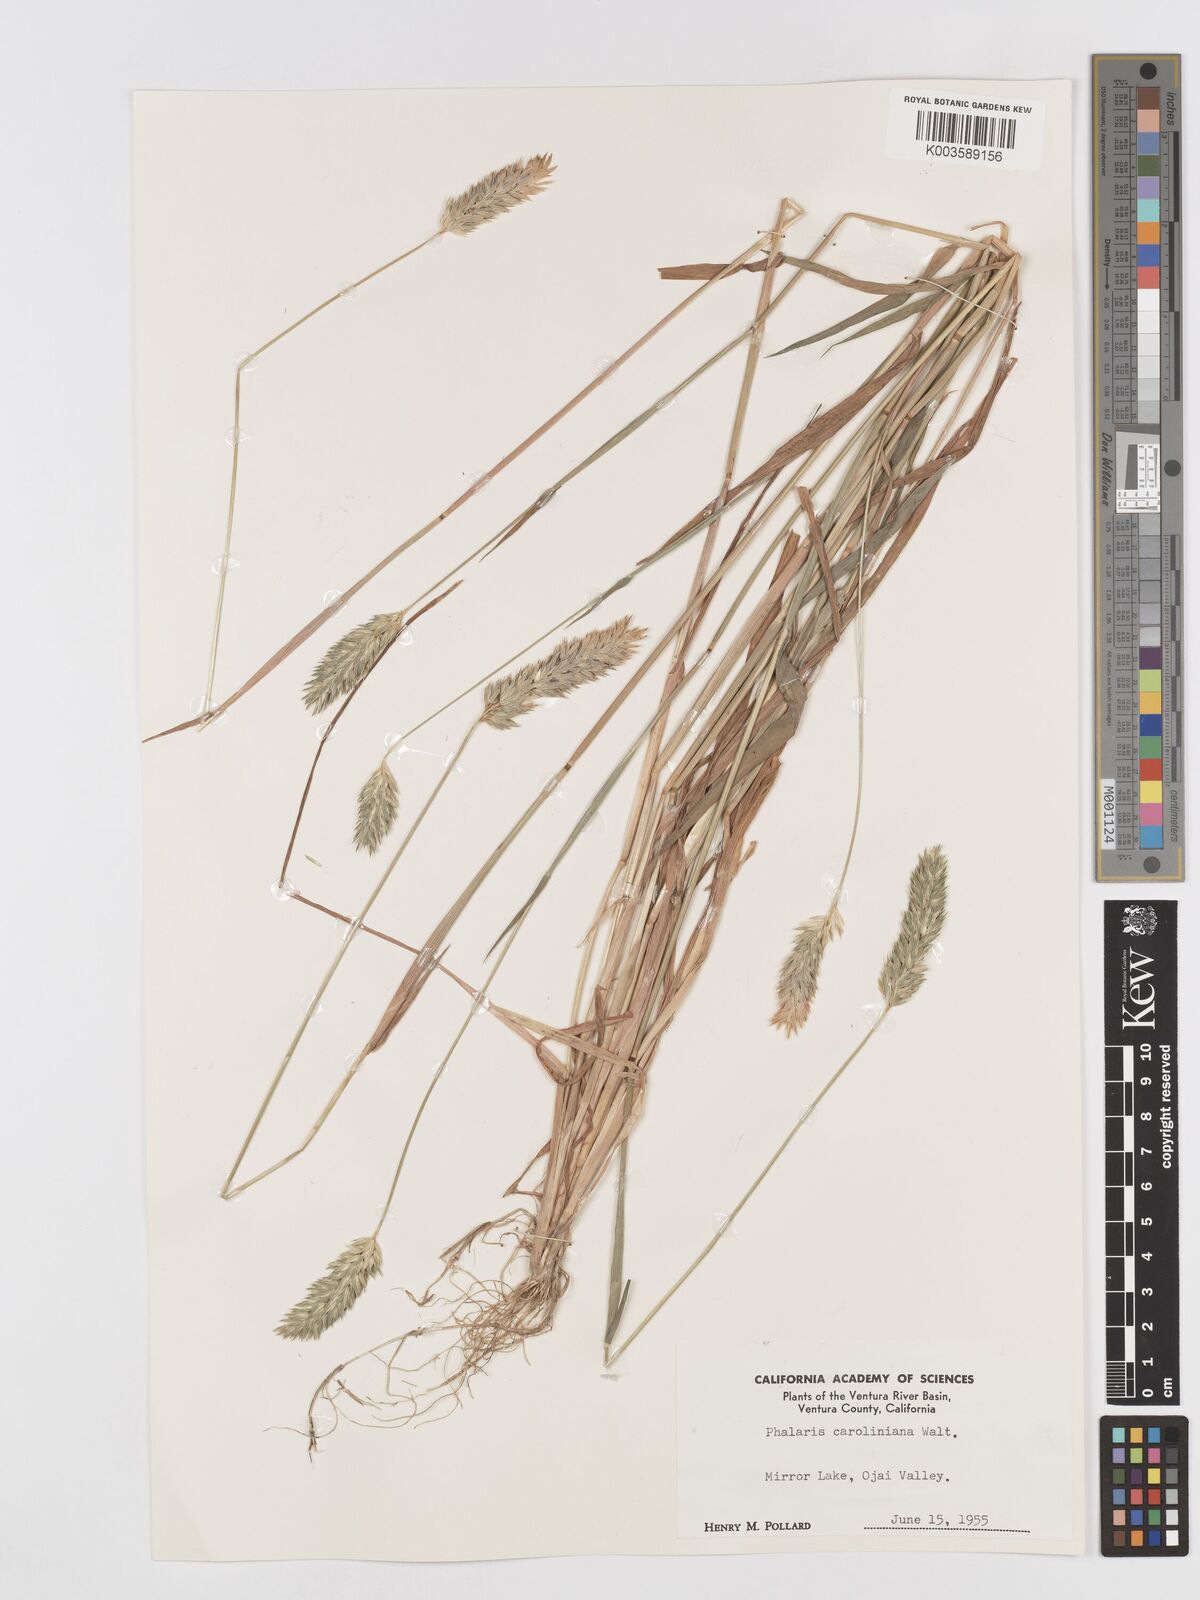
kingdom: Plantae
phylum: Tracheophyta
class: Liliopsida
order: Poales
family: Poaceae
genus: Phalaris
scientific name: Phalaris caroliniana
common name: May grass
